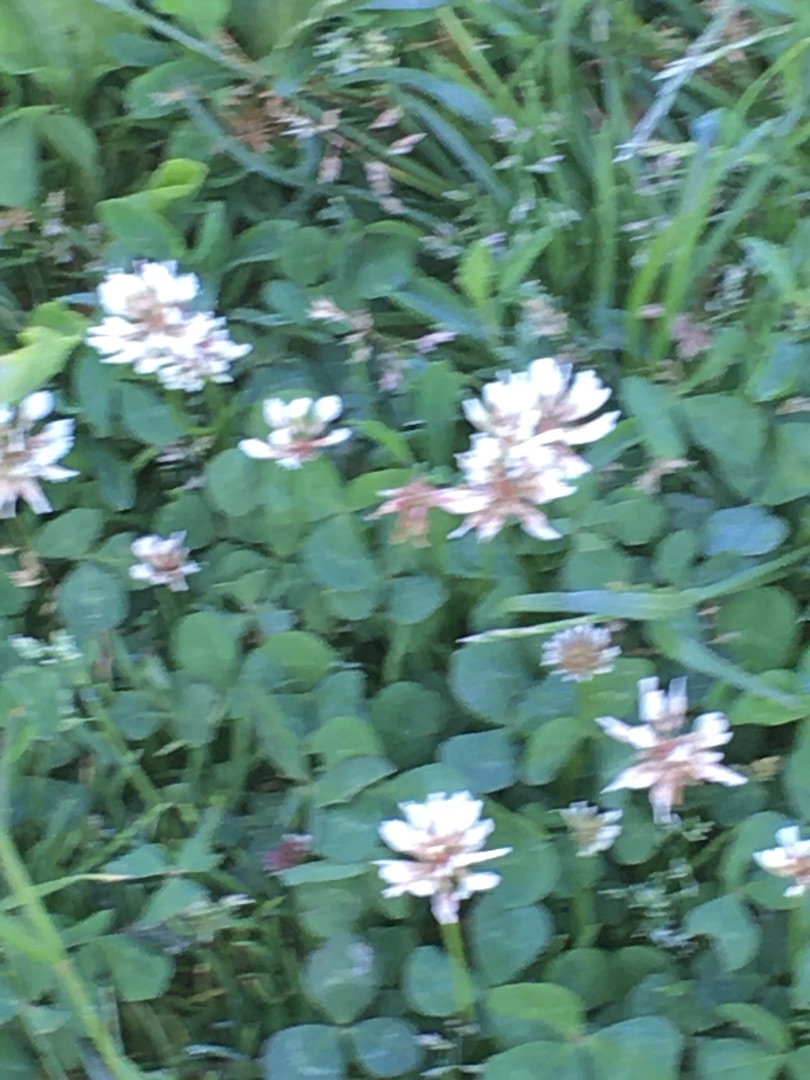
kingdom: Plantae
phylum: Tracheophyta
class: Magnoliopsida
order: Fabales
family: Fabaceae
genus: Trifolium
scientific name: Trifolium repens
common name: Hvid-kløver
